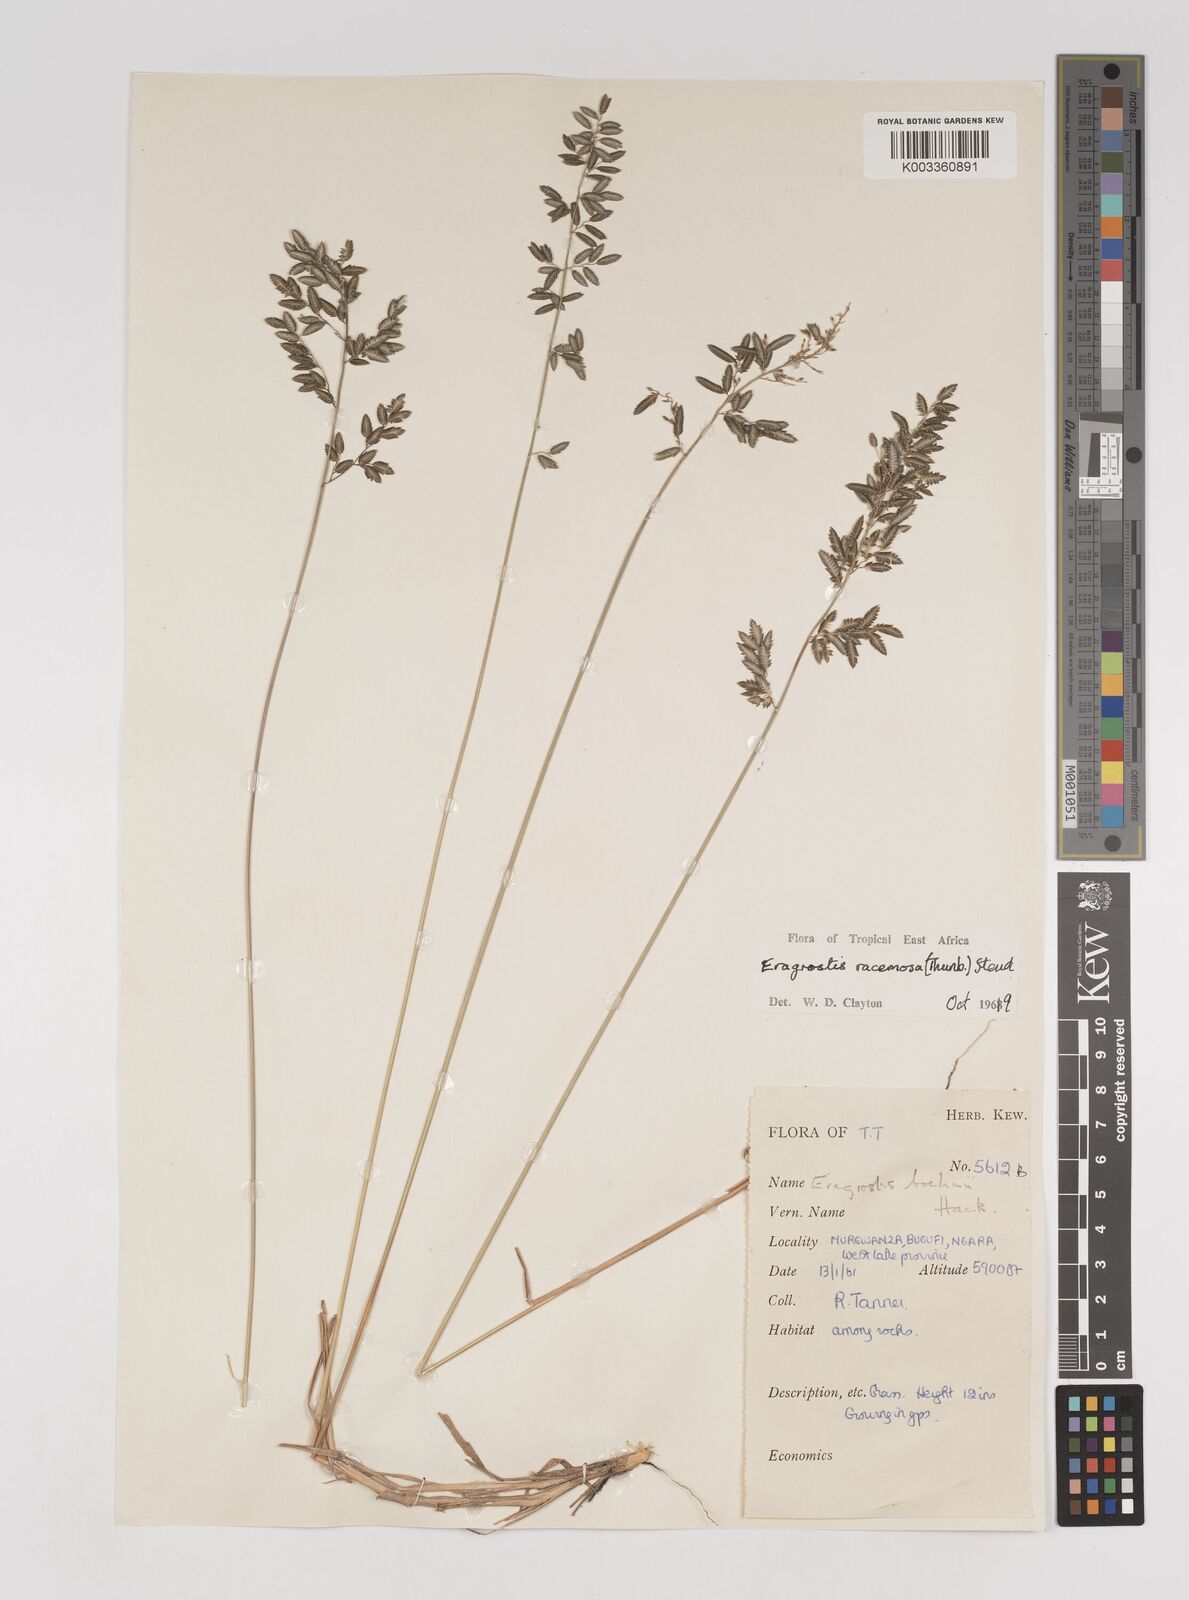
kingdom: Plantae
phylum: Tracheophyta
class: Liliopsida
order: Poales
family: Poaceae
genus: Eragrostis
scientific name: Eragrostis racemosa
